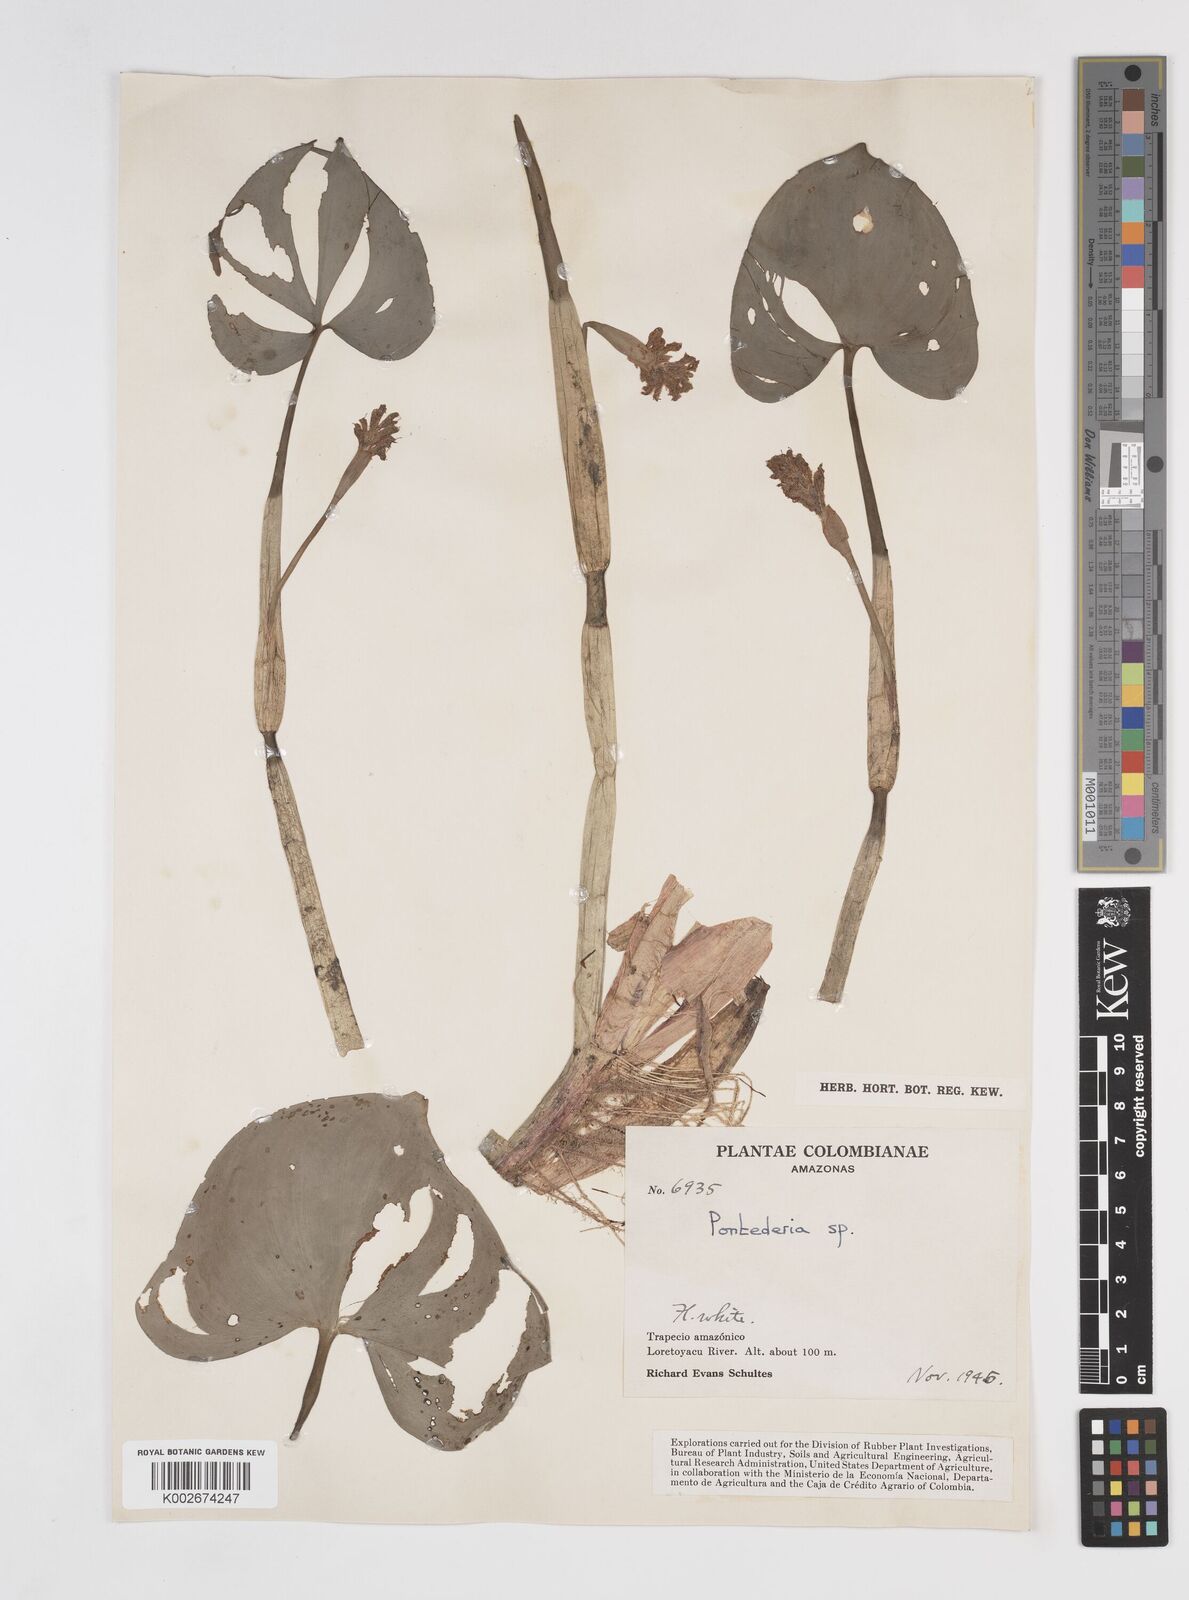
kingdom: Plantae
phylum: Tracheophyta
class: Liliopsida
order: Commelinales
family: Pontederiaceae
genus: Pontederia
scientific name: Pontederia rotundifolia
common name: Tropical pickerel-weed
